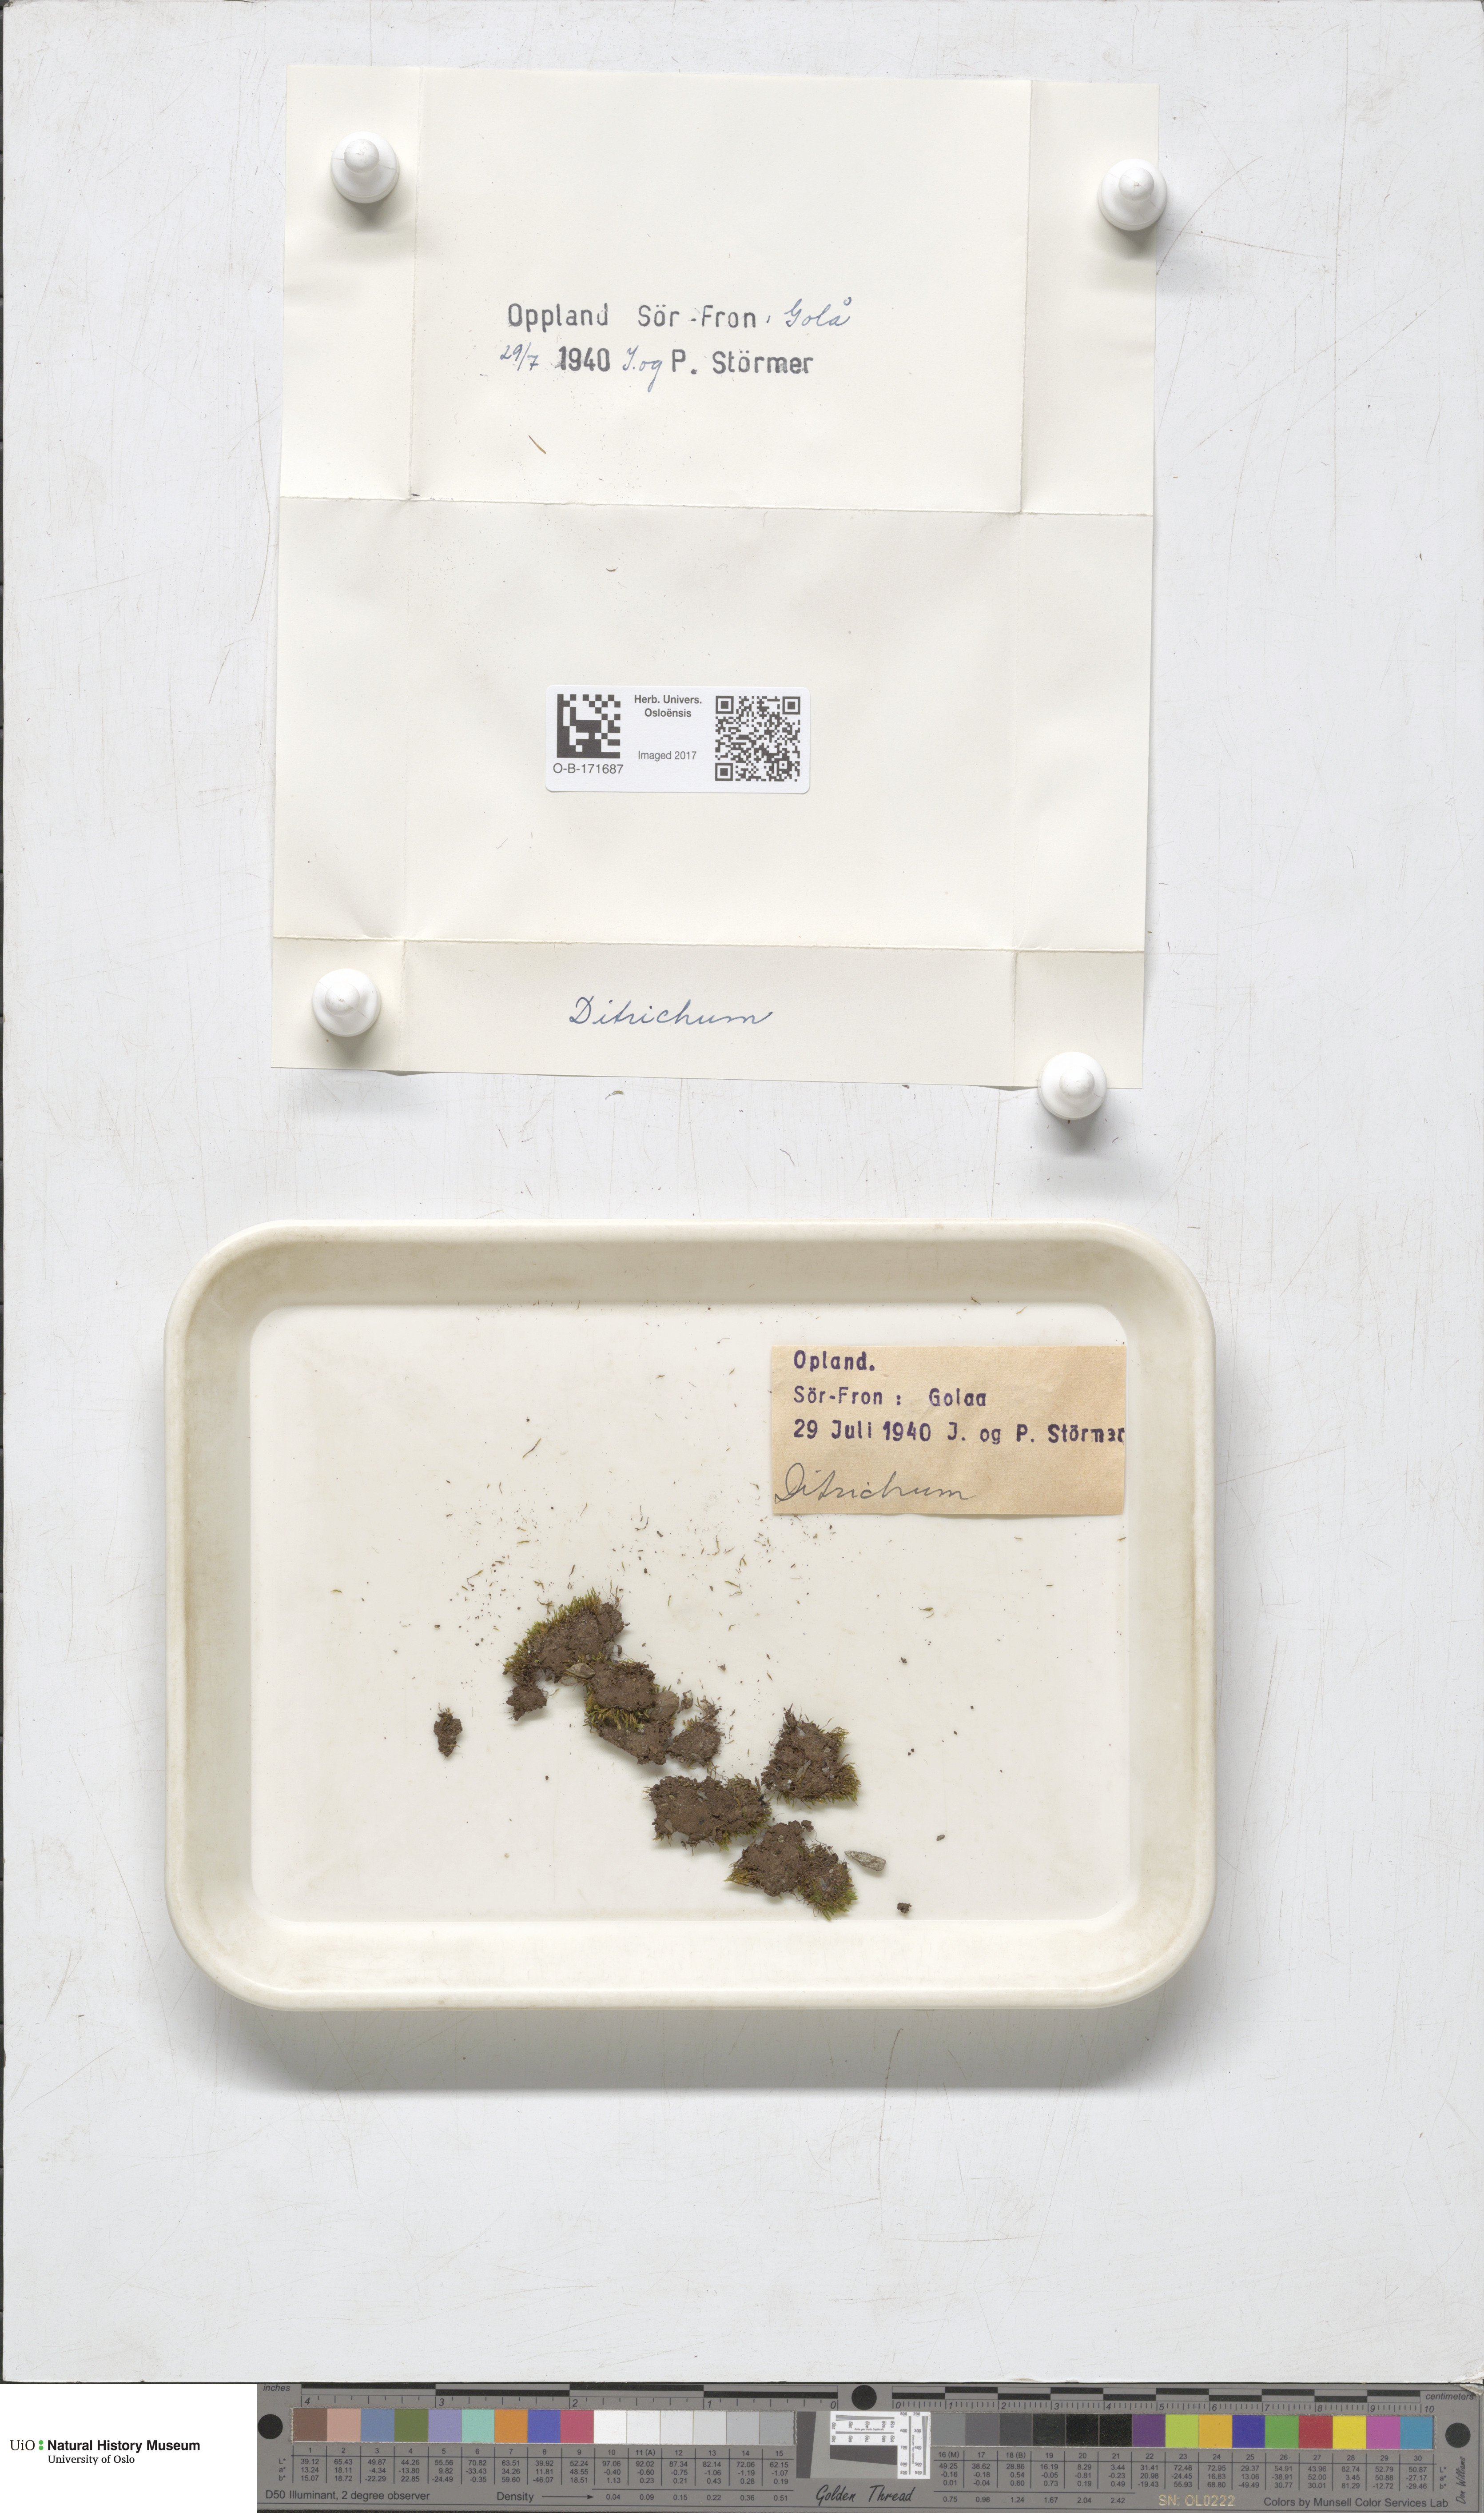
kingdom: Plantae
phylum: Bryophyta
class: Bryopsida
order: Dicranales
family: Ditrichaceae
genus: Ditrichum
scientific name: Ditrichum
